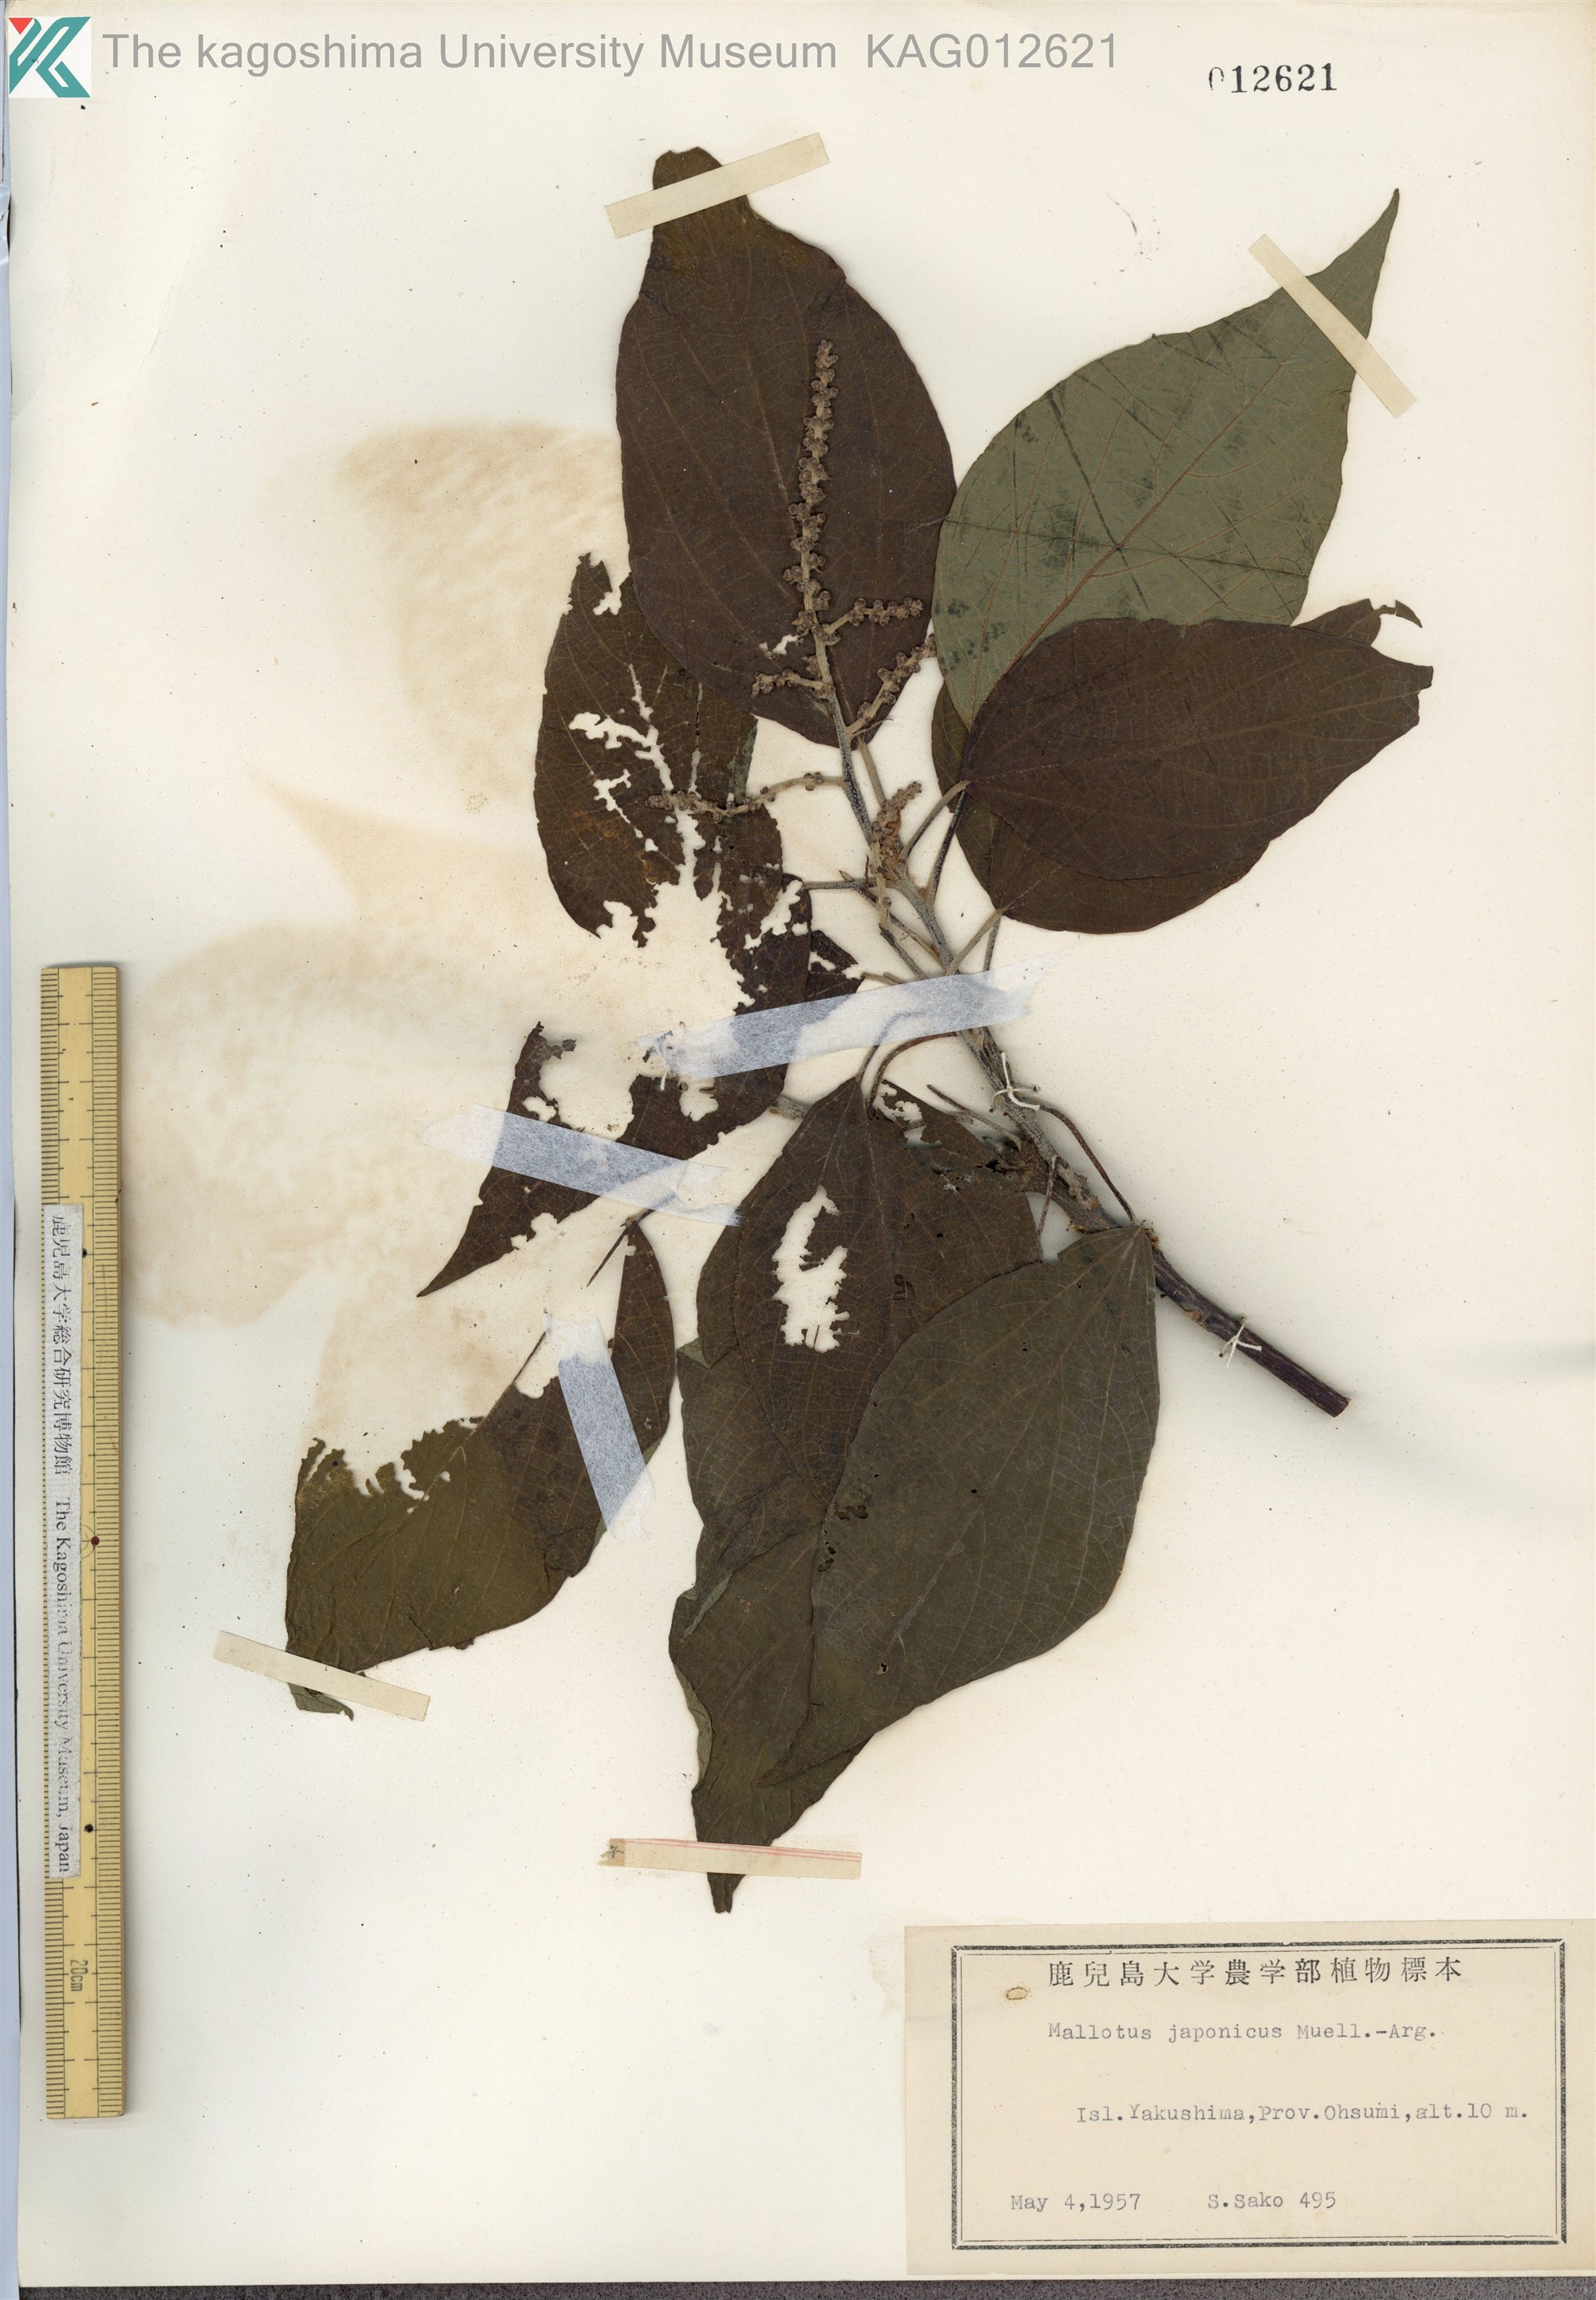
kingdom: Plantae
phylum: Tracheophyta
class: Magnoliopsida
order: Malpighiales
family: Euphorbiaceae
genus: Mallotus
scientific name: Mallotus japonicus
